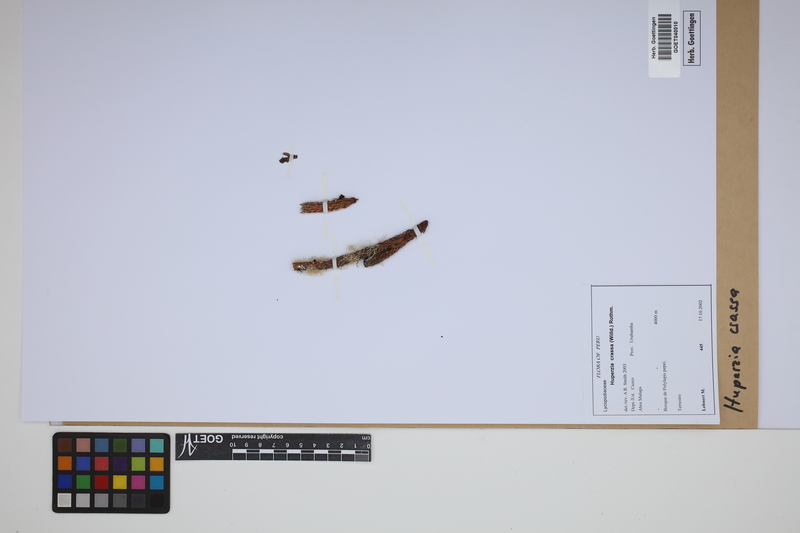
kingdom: Plantae
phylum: Tracheophyta
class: Lycopodiopsida
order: Lycopodiales
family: Lycopodiaceae
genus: Phlegmariurus
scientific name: Phlegmariurus crassus
